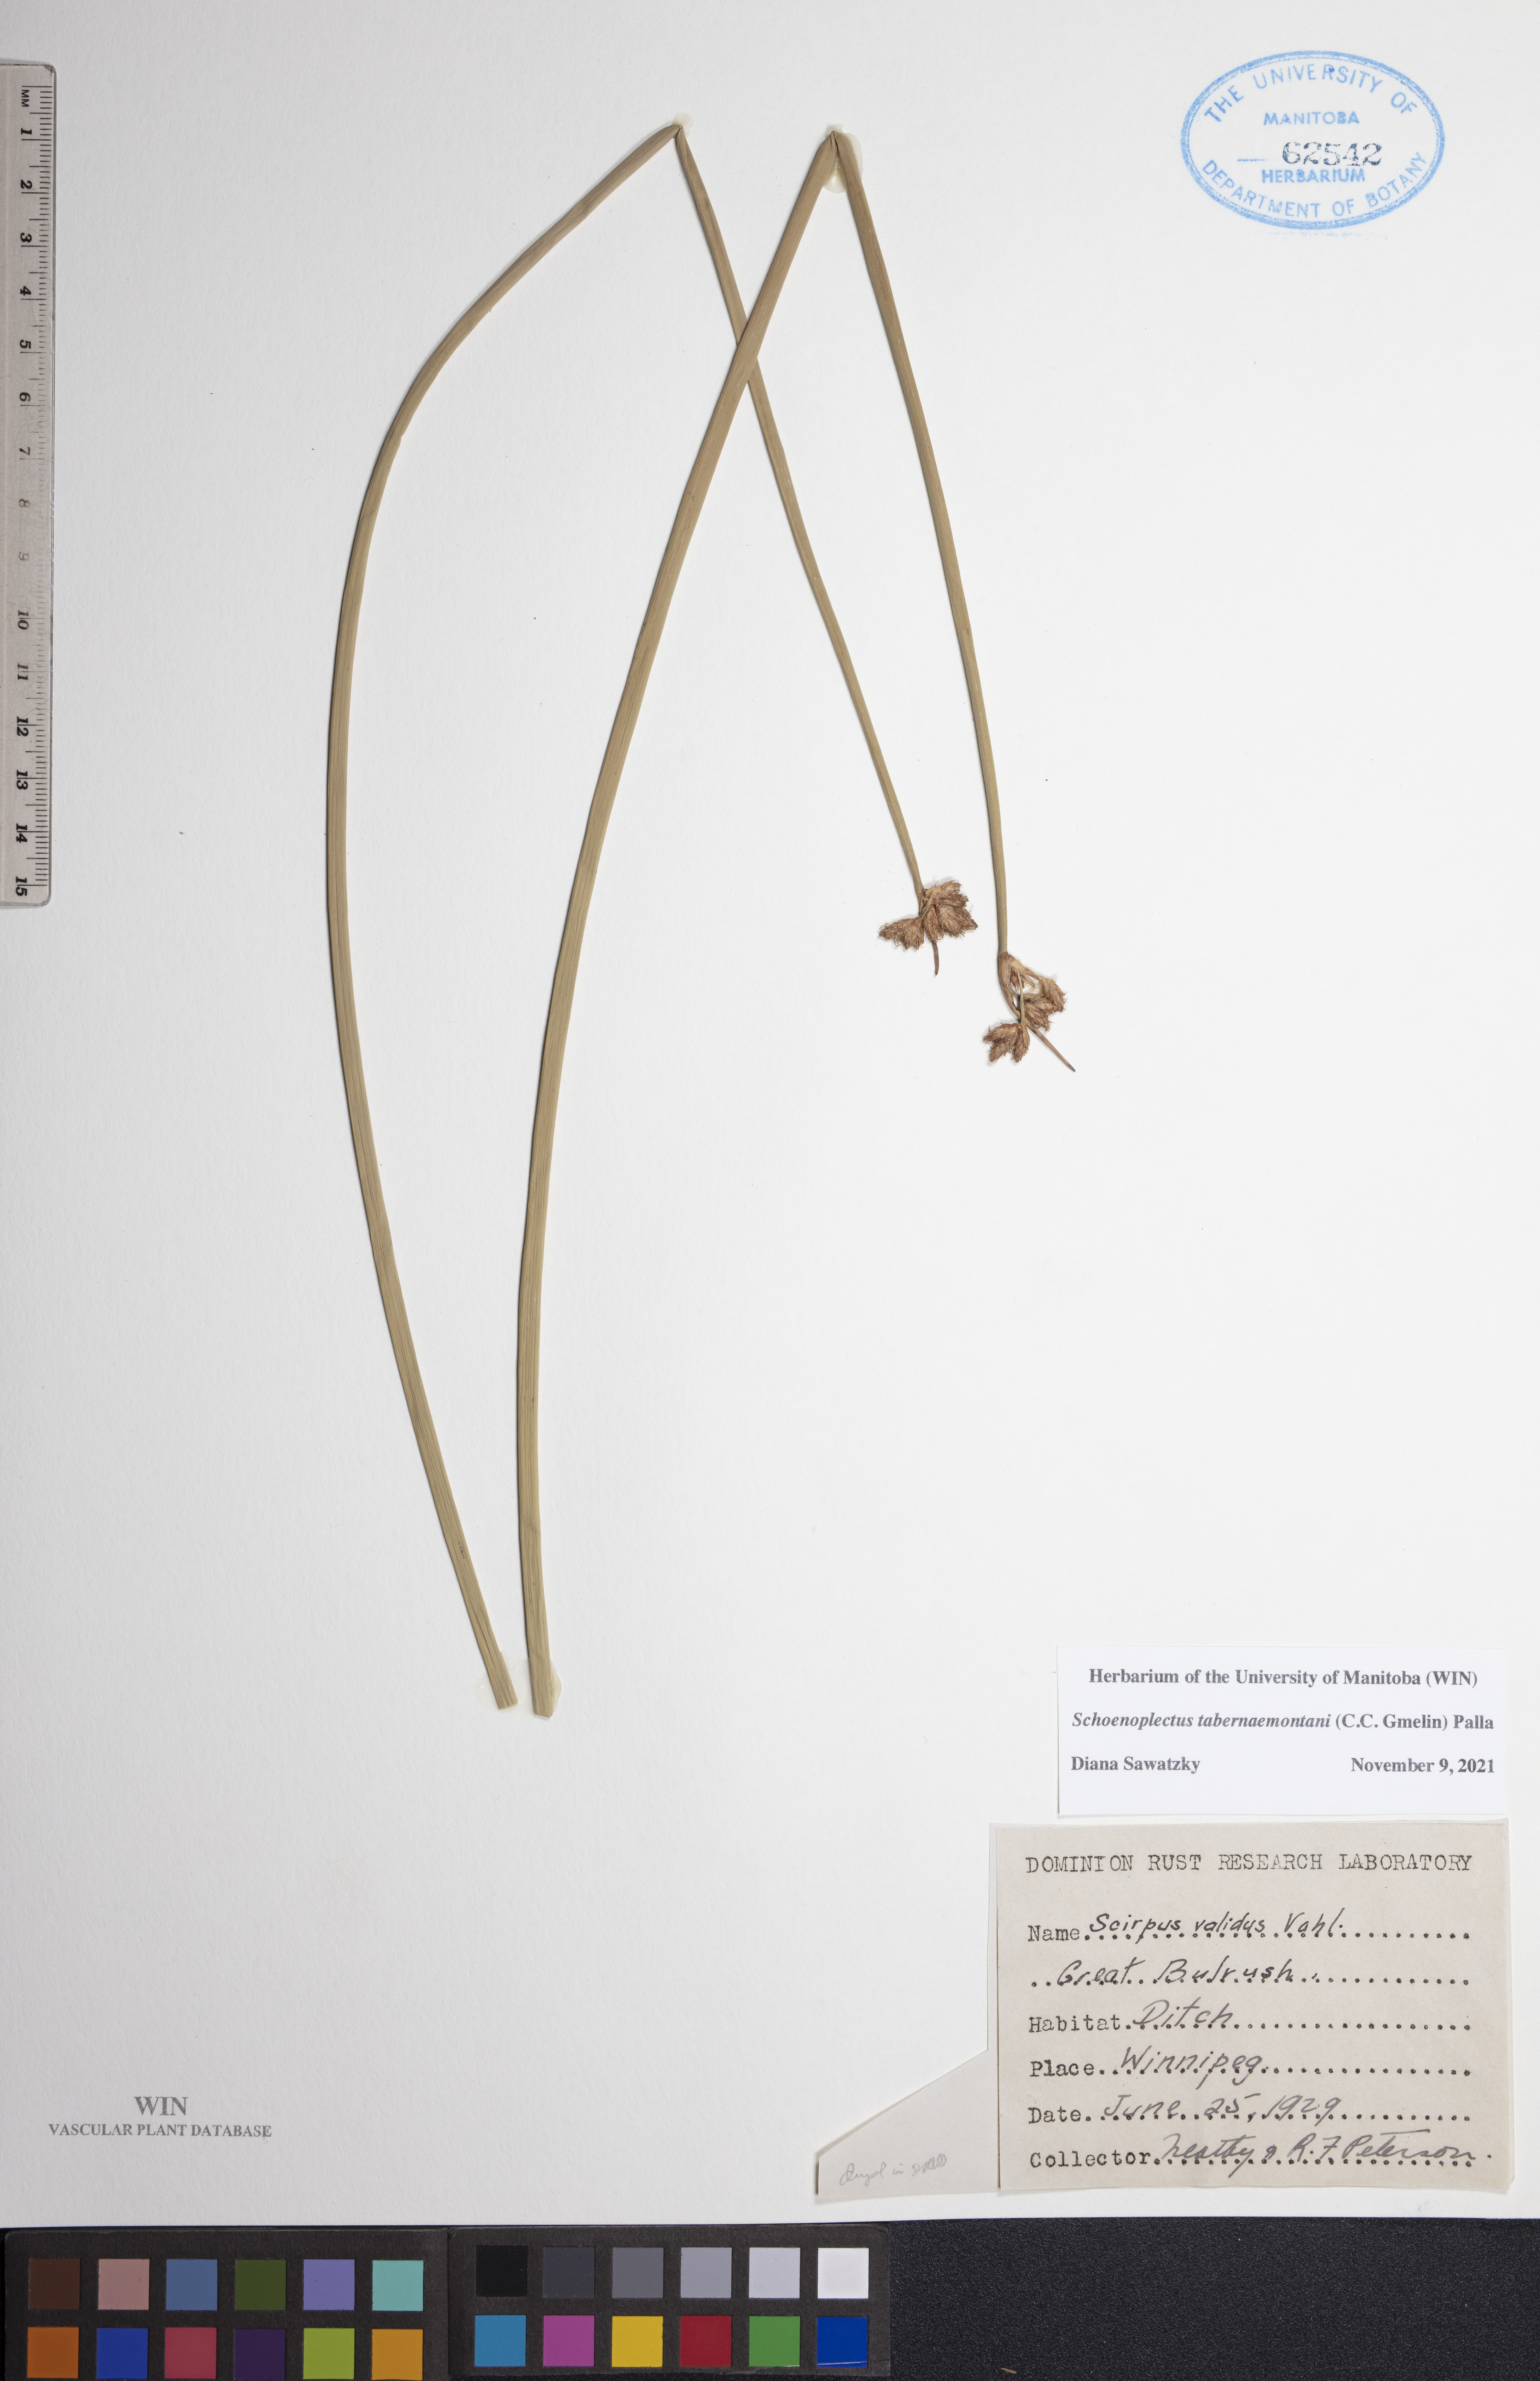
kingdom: Plantae
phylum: Tracheophyta
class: Liliopsida
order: Poales
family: Cyperaceae
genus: Schoenoplectus
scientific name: Schoenoplectus tabernaemontani
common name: Grey club-rush
